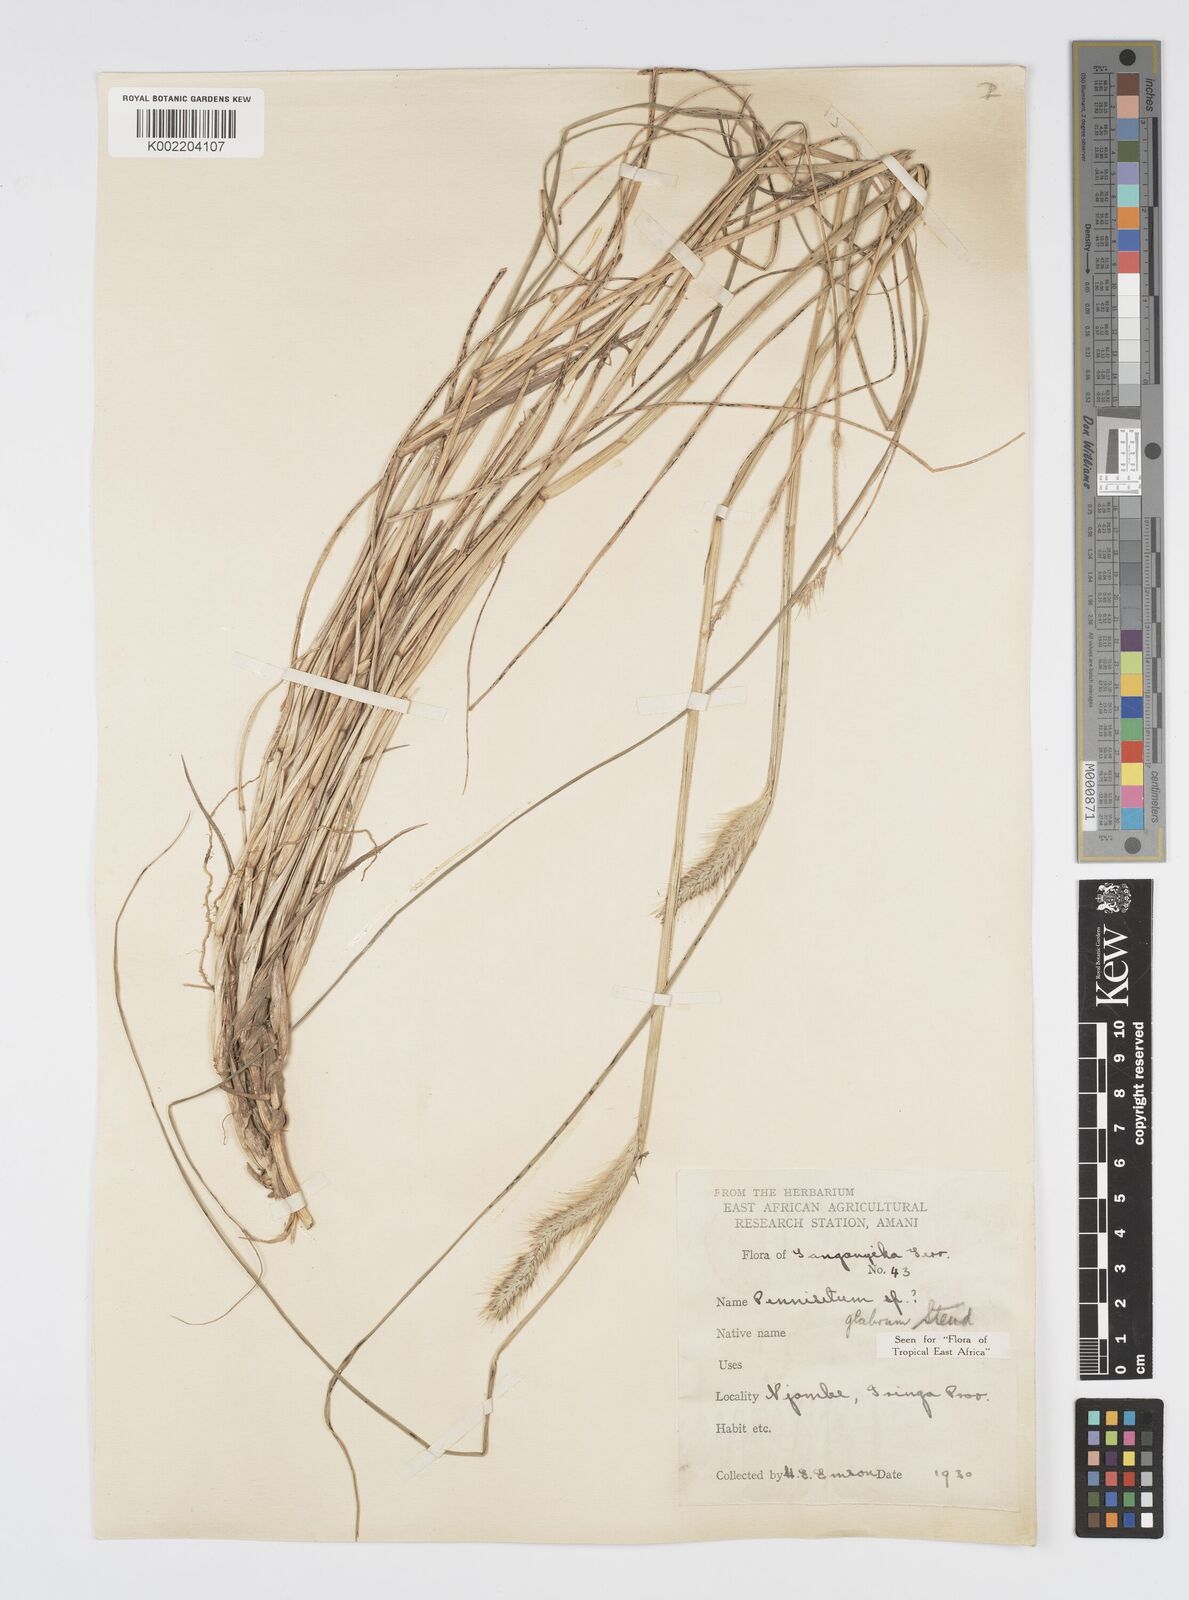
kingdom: Plantae
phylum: Tracheophyta
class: Liliopsida
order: Poales
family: Poaceae
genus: Cenchrus
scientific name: Cenchrus geniculatus
